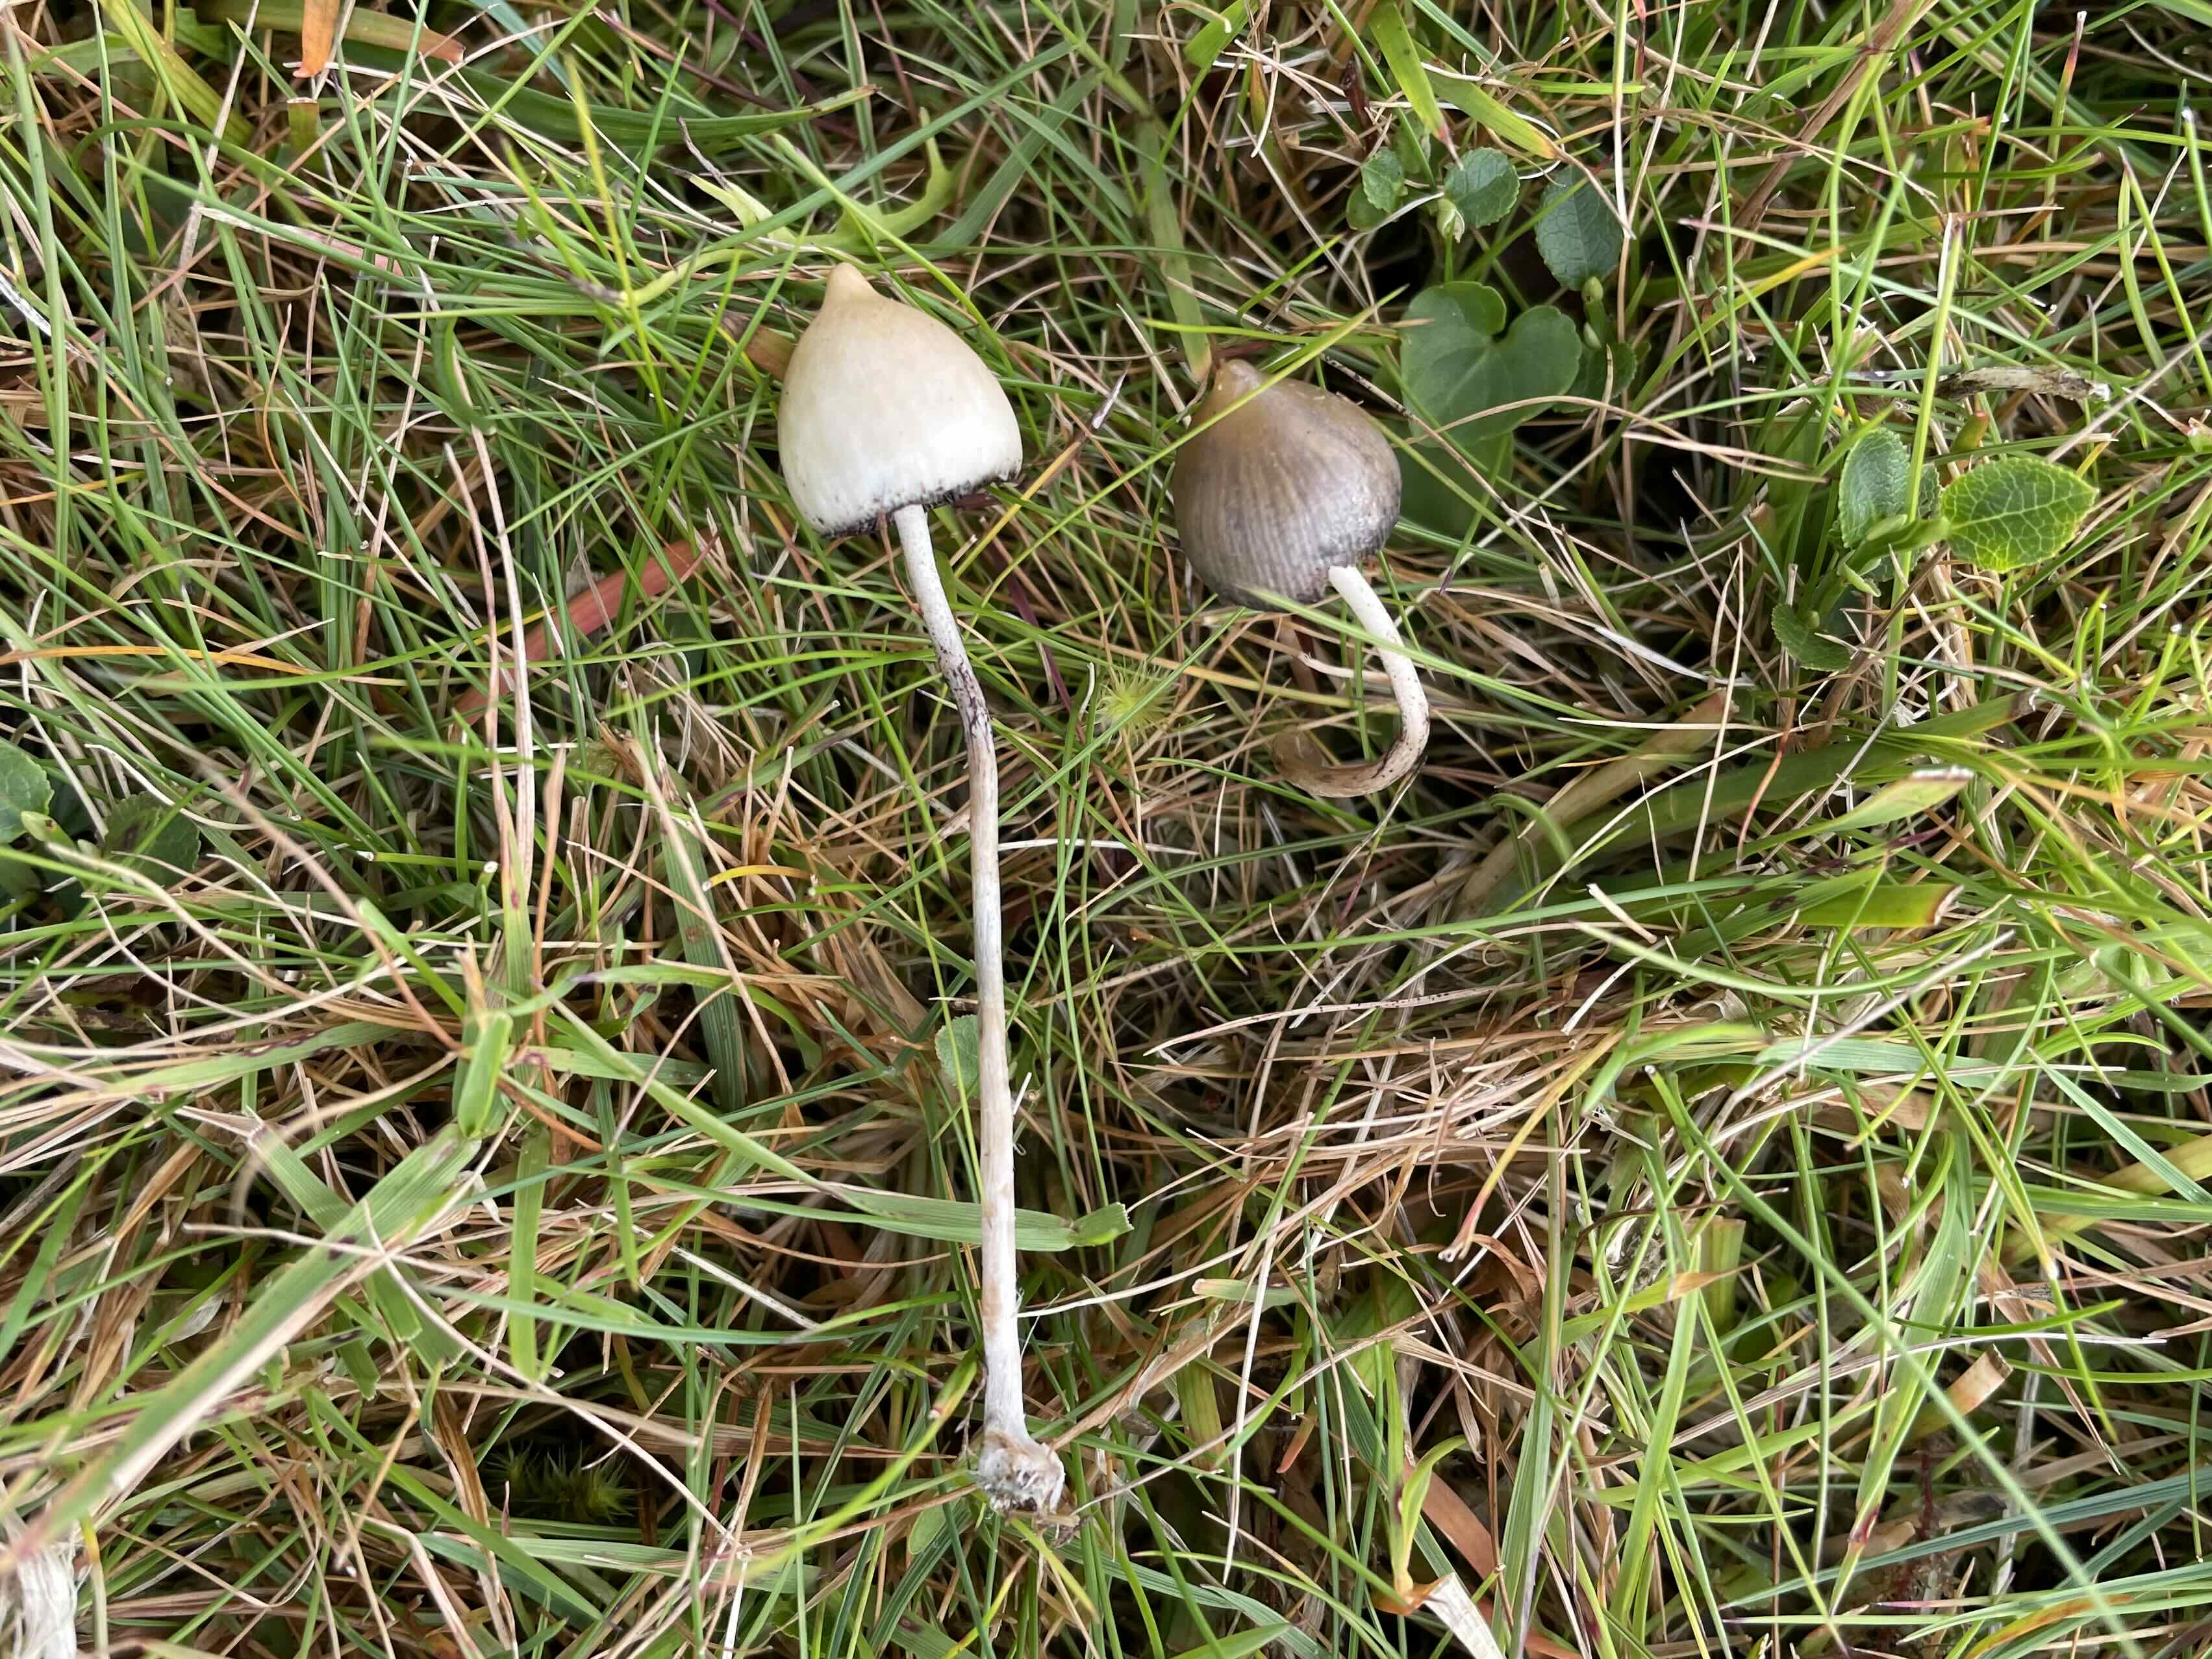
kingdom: Fungi
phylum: Basidiomycota
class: Agaricomycetes
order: Agaricales
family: Hymenogastraceae
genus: Psilocybe
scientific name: Psilocybe semilanceata
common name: spids nøgenhat
